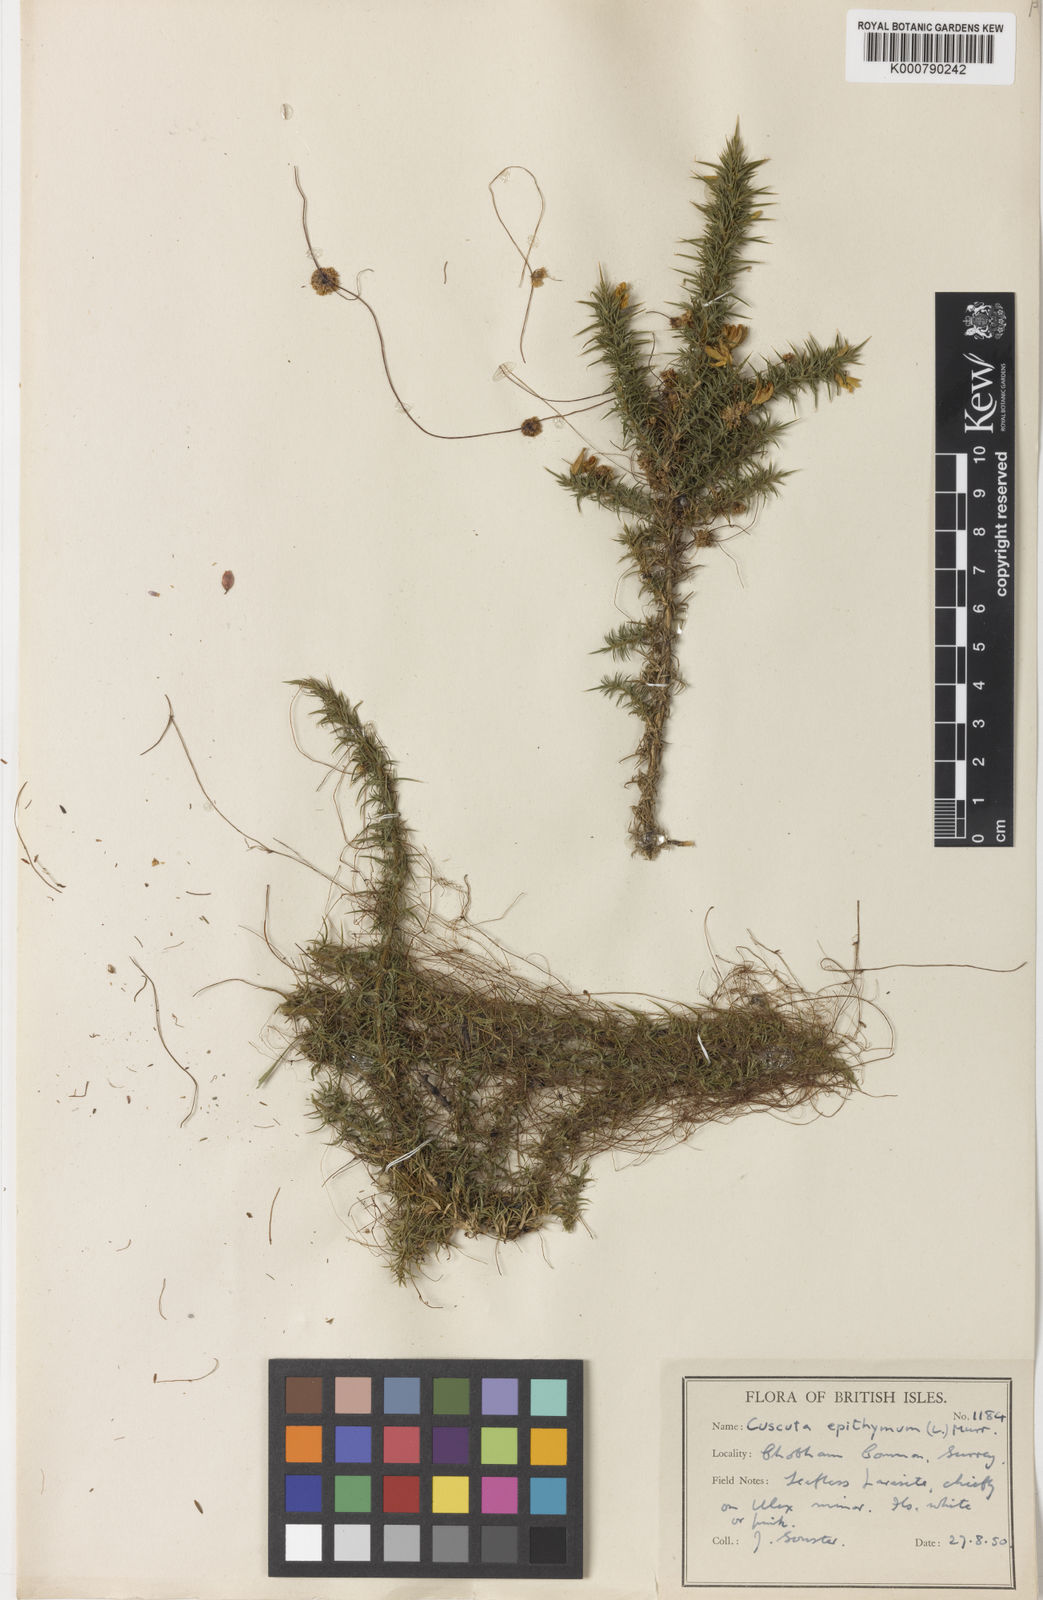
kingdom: Plantae
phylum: Tracheophyta
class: Magnoliopsida
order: Solanales
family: Convolvulaceae
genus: Cuscuta
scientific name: Cuscuta epithymum
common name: Clover dodder
